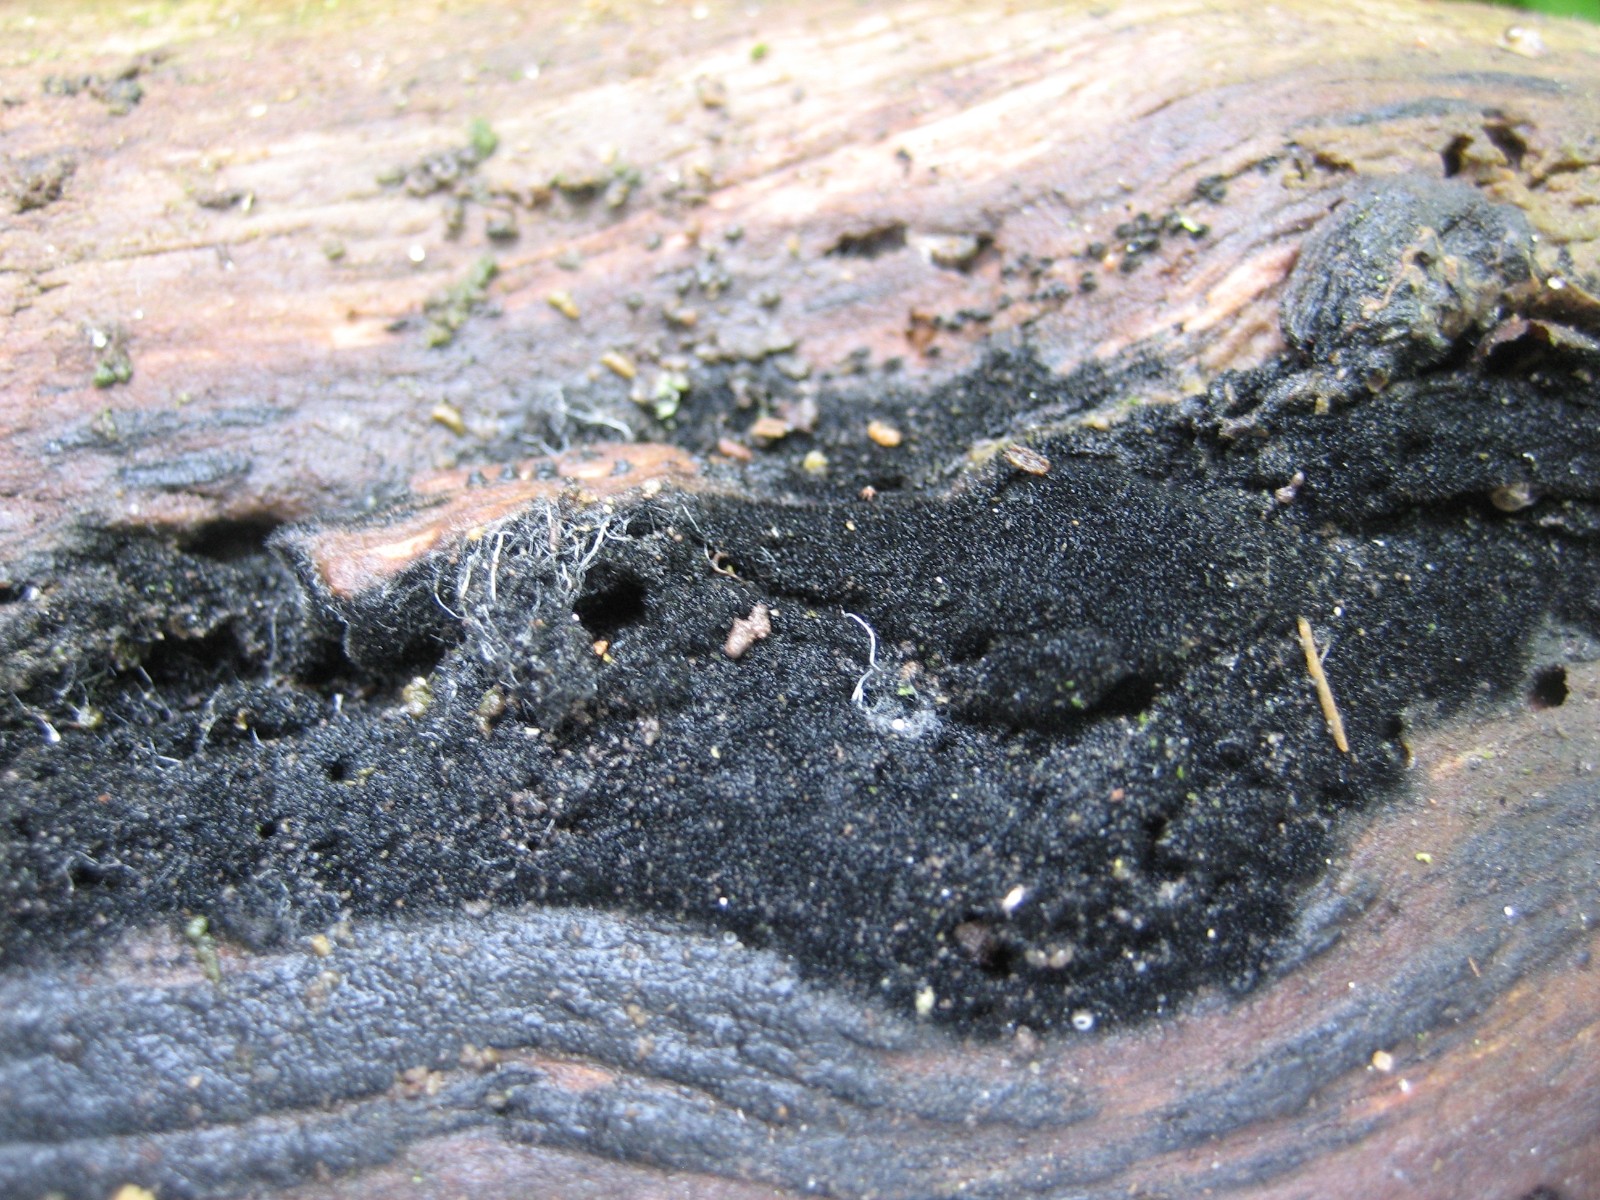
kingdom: Fungi
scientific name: Fungi
